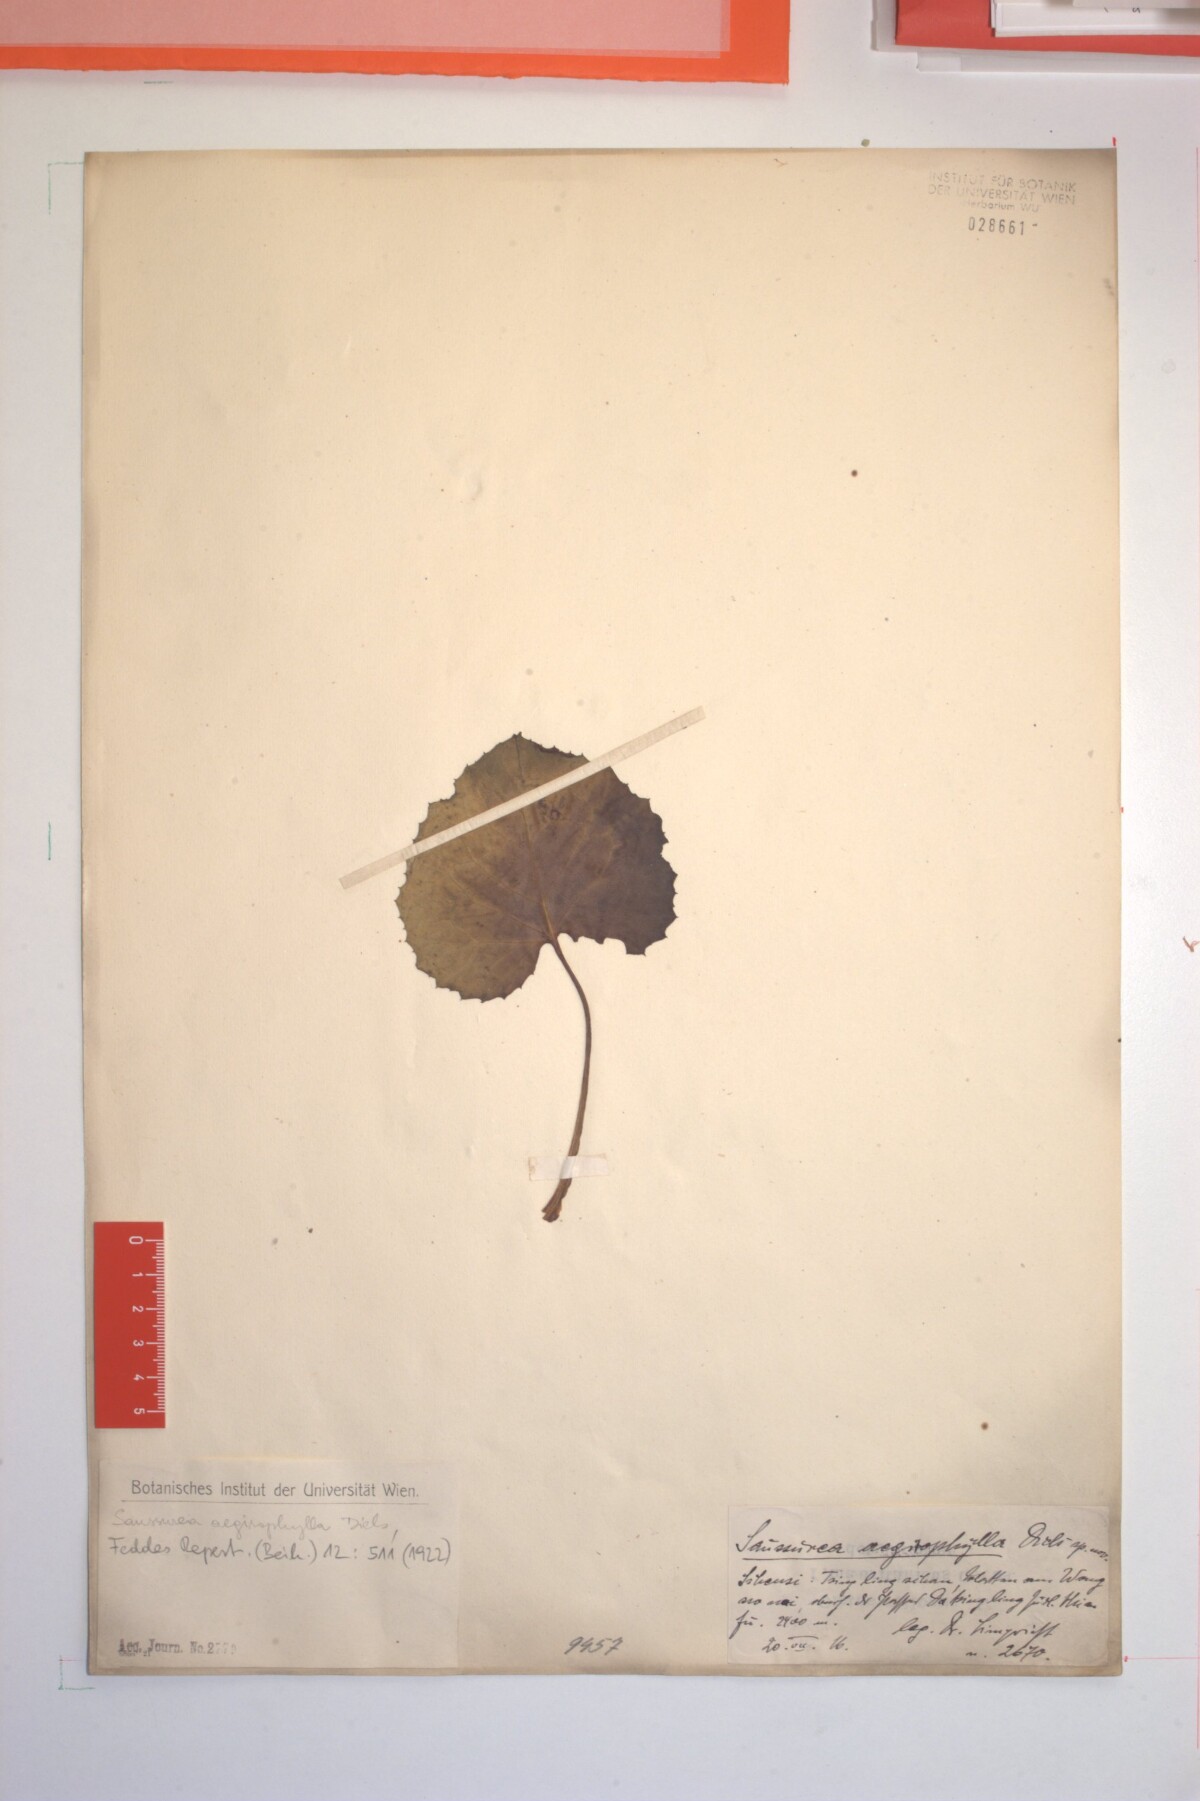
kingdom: Plantae
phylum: Tracheophyta
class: Magnoliopsida
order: Asterales
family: Asteraceae
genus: Saussurea
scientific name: Saussurea cordifolia
